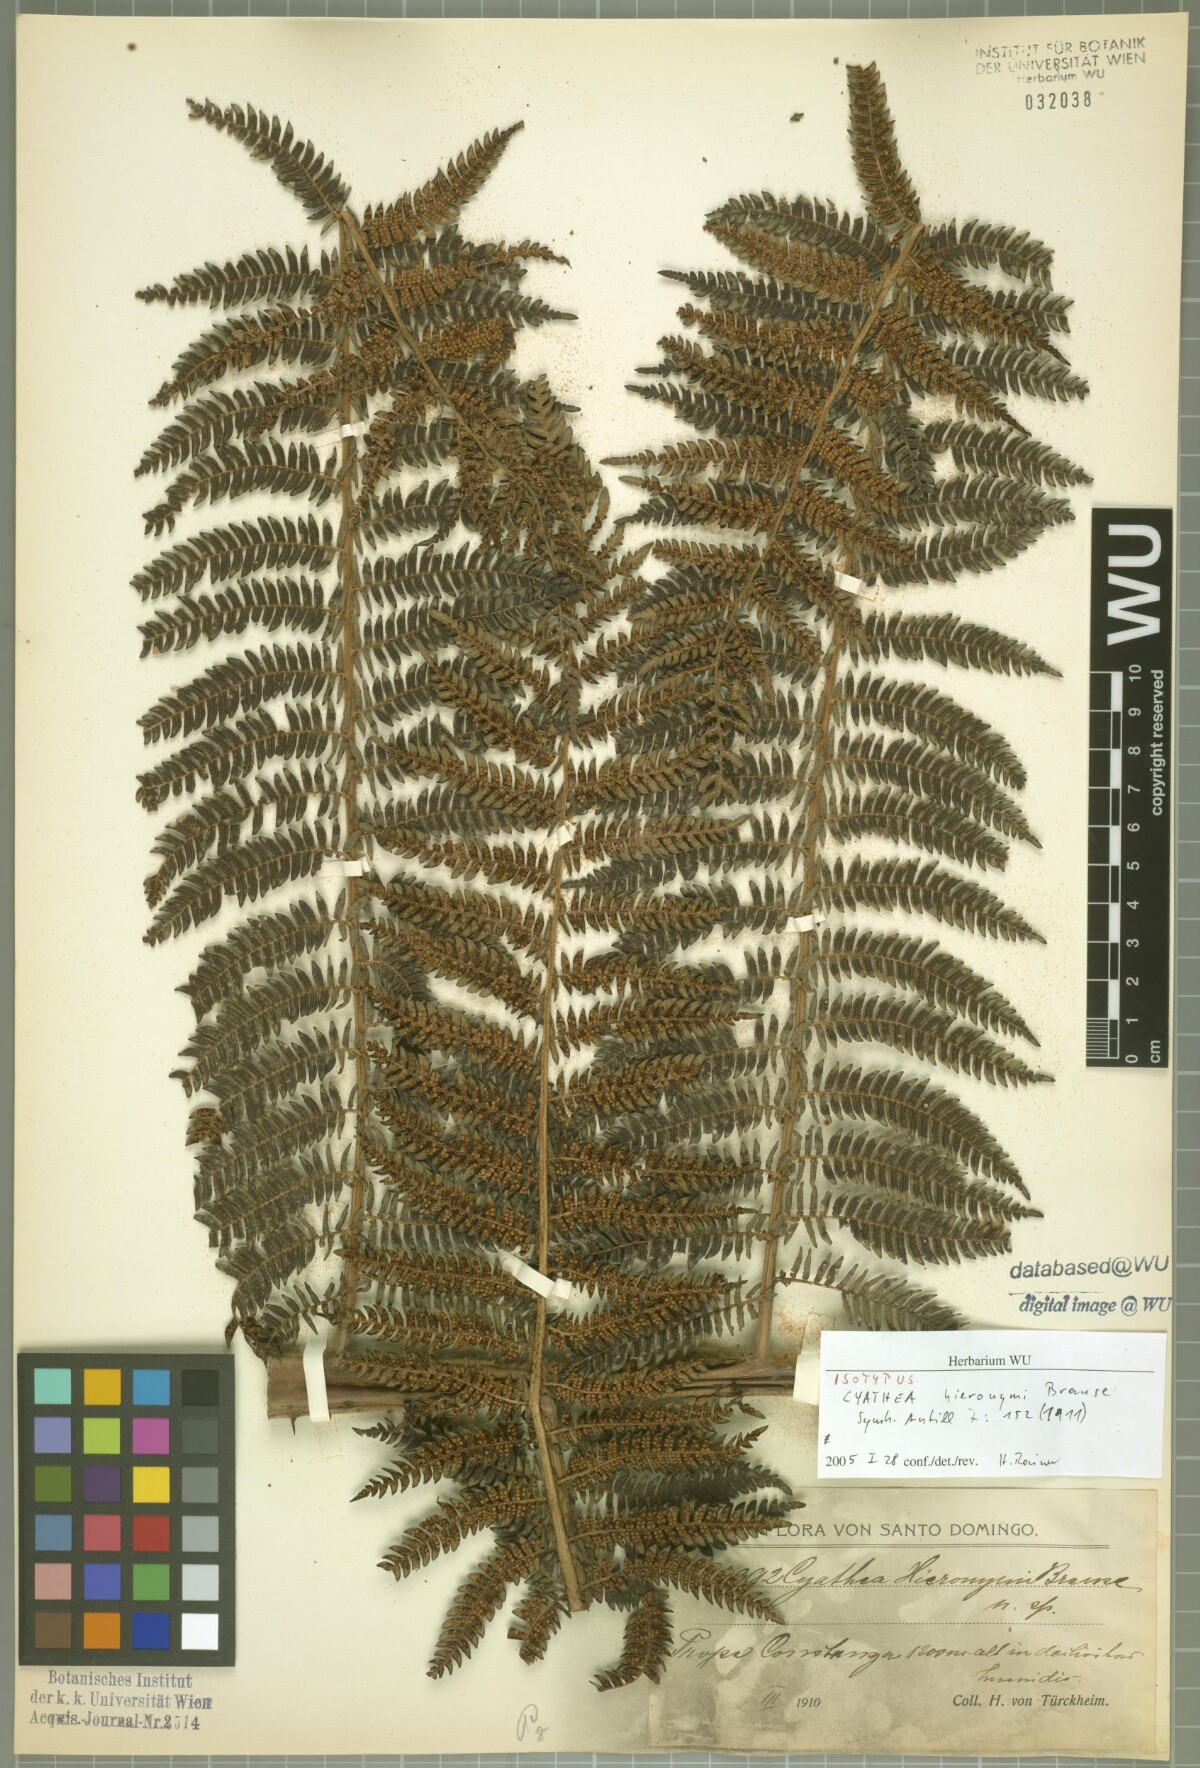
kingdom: Plantae
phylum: Tracheophyta
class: Polypodiopsida
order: Cyatheales
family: Cyatheaceae
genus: Alsophila
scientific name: Alsophila woodwardioides
